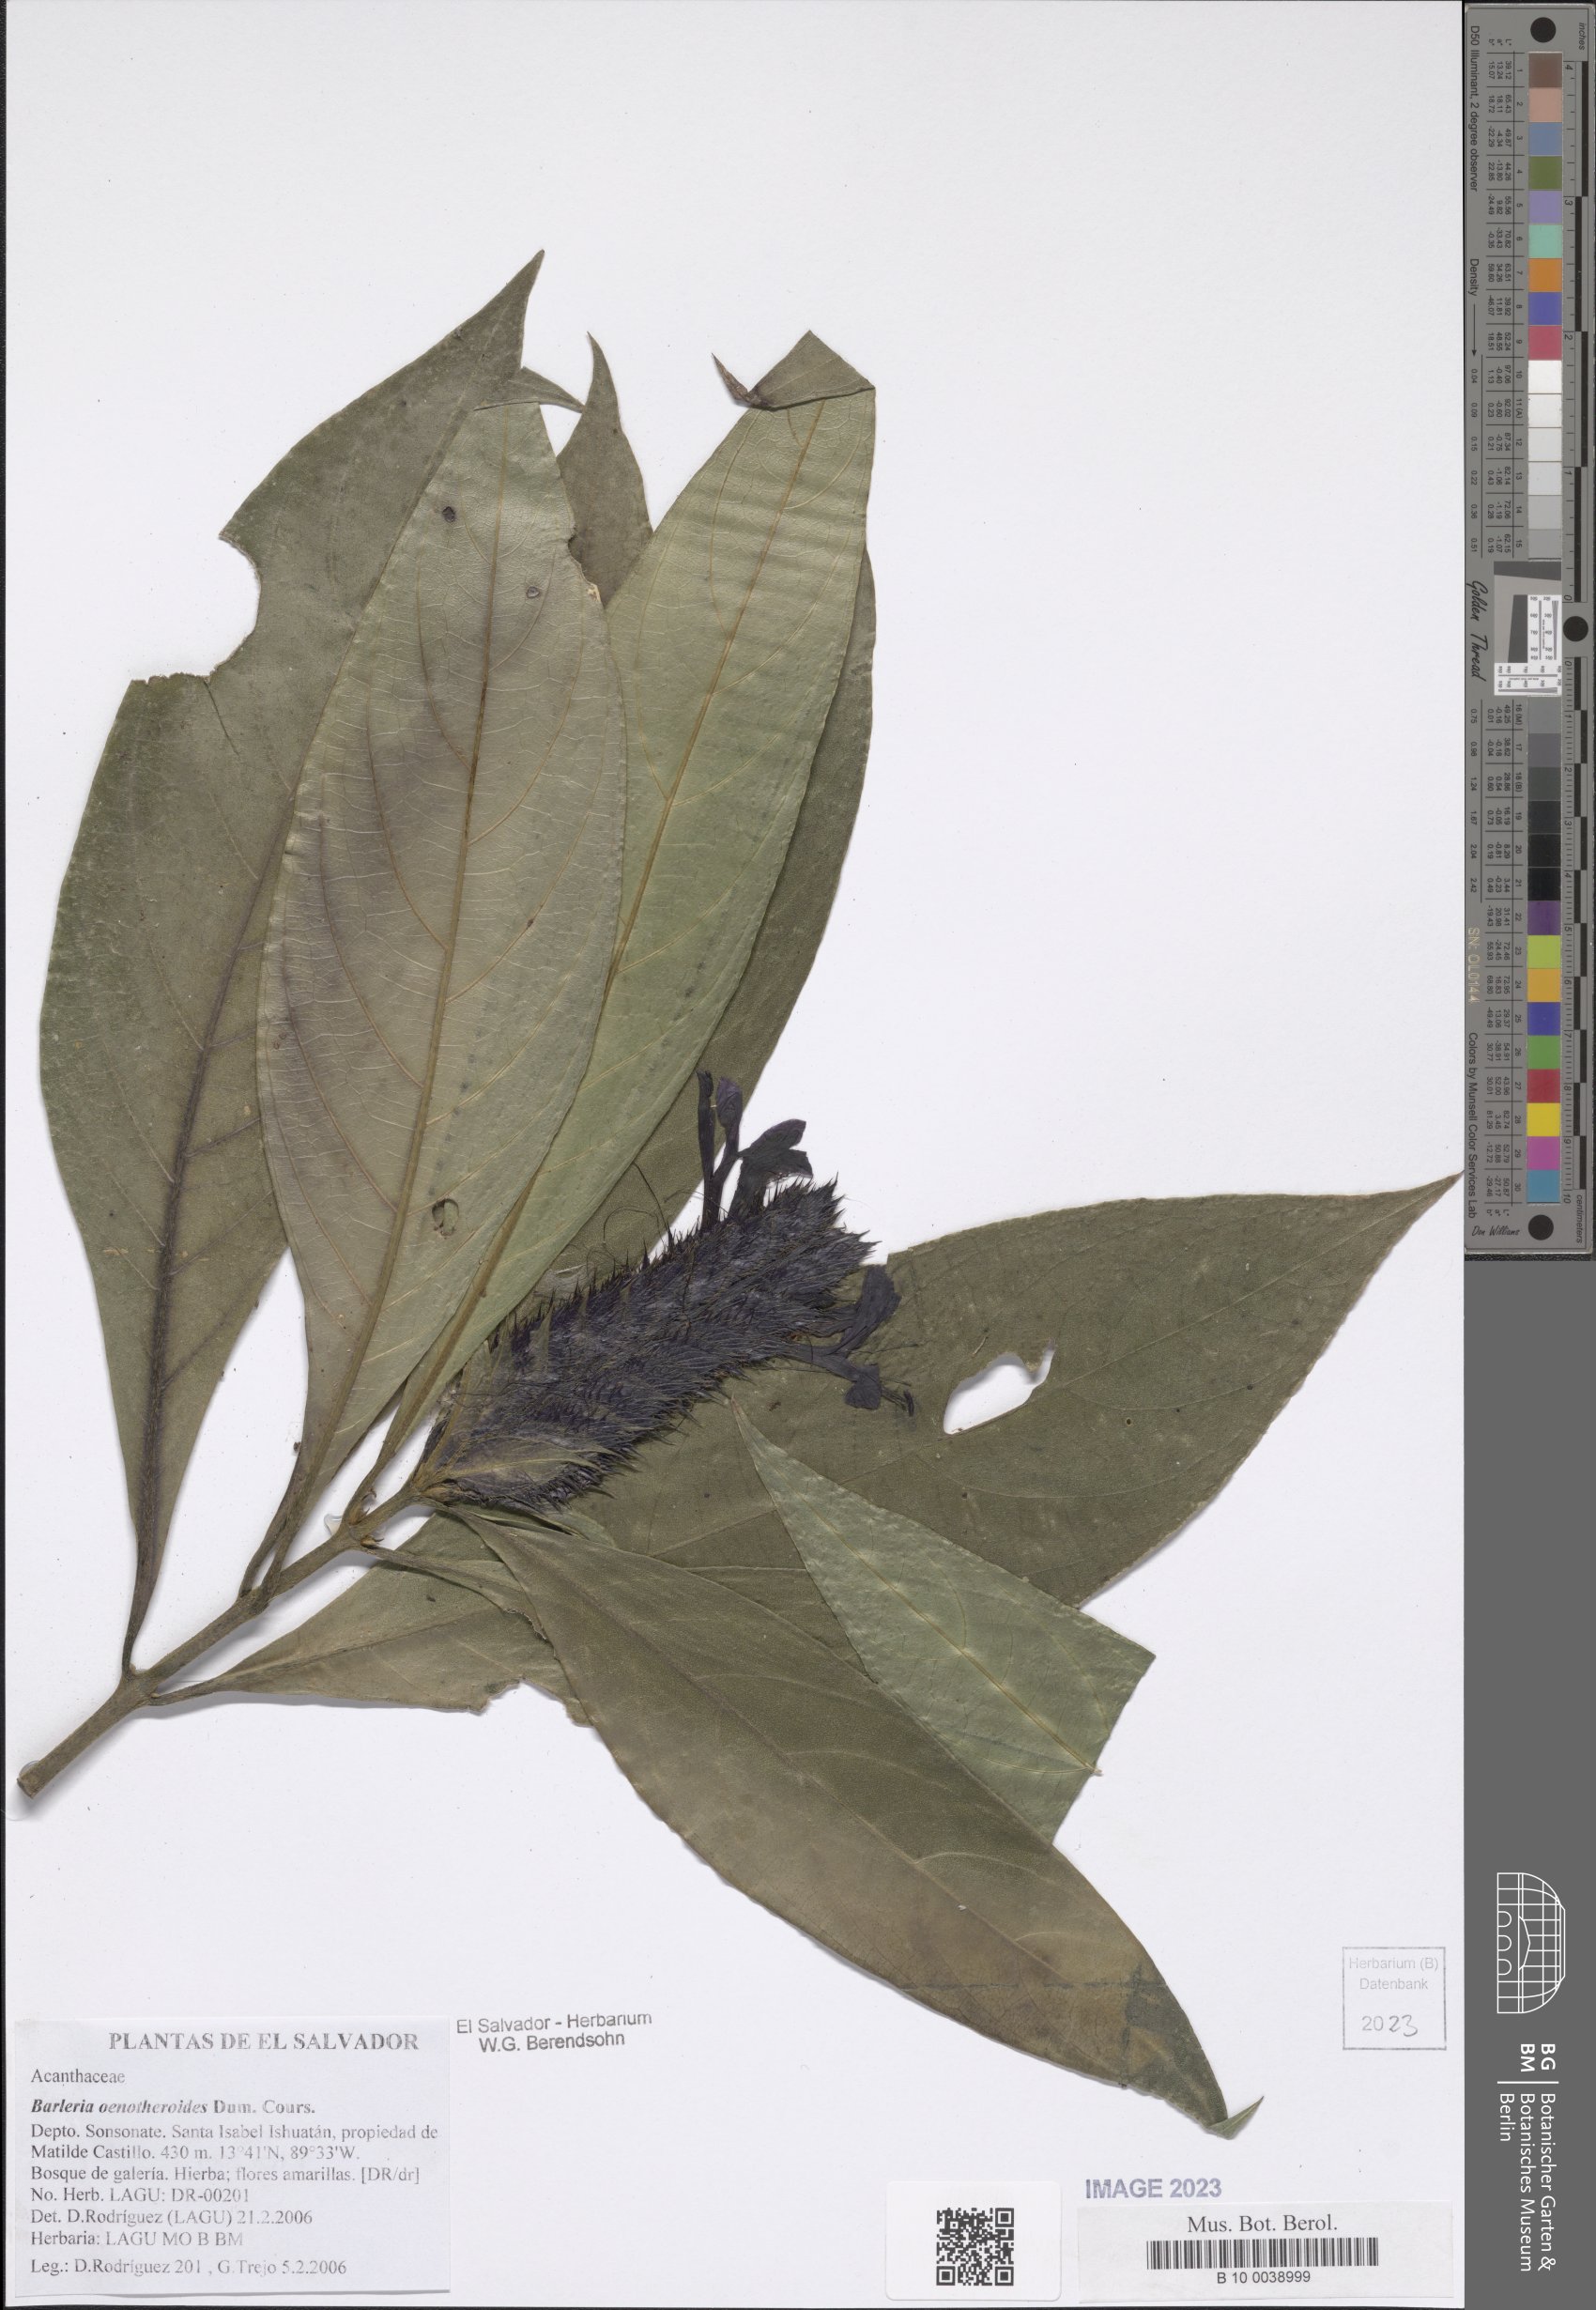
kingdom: Plantae
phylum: Tracheophyta
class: Magnoliopsida
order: Lamiales
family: Acanthaceae
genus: Barleria
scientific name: Barleria oenotheroides
